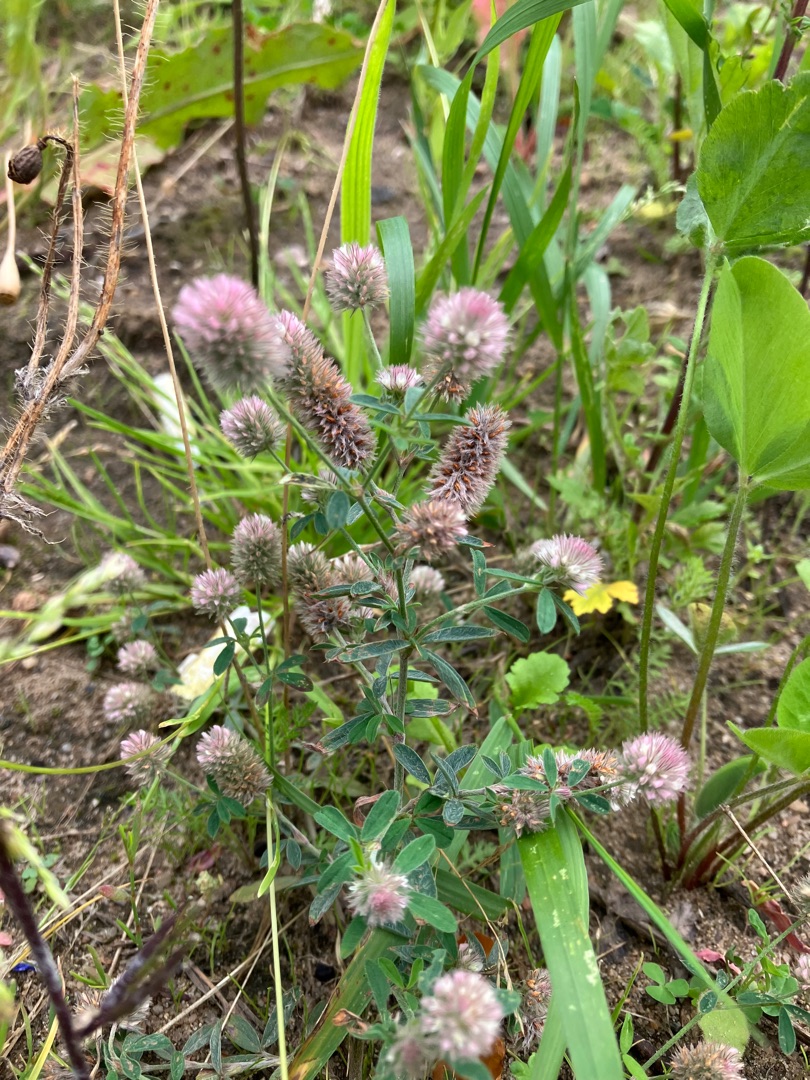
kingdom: Plantae
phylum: Tracheophyta
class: Magnoliopsida
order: Fabales
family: Fabaceae
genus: Trifolium
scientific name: Trifolium arvense
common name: Hare-kløver
